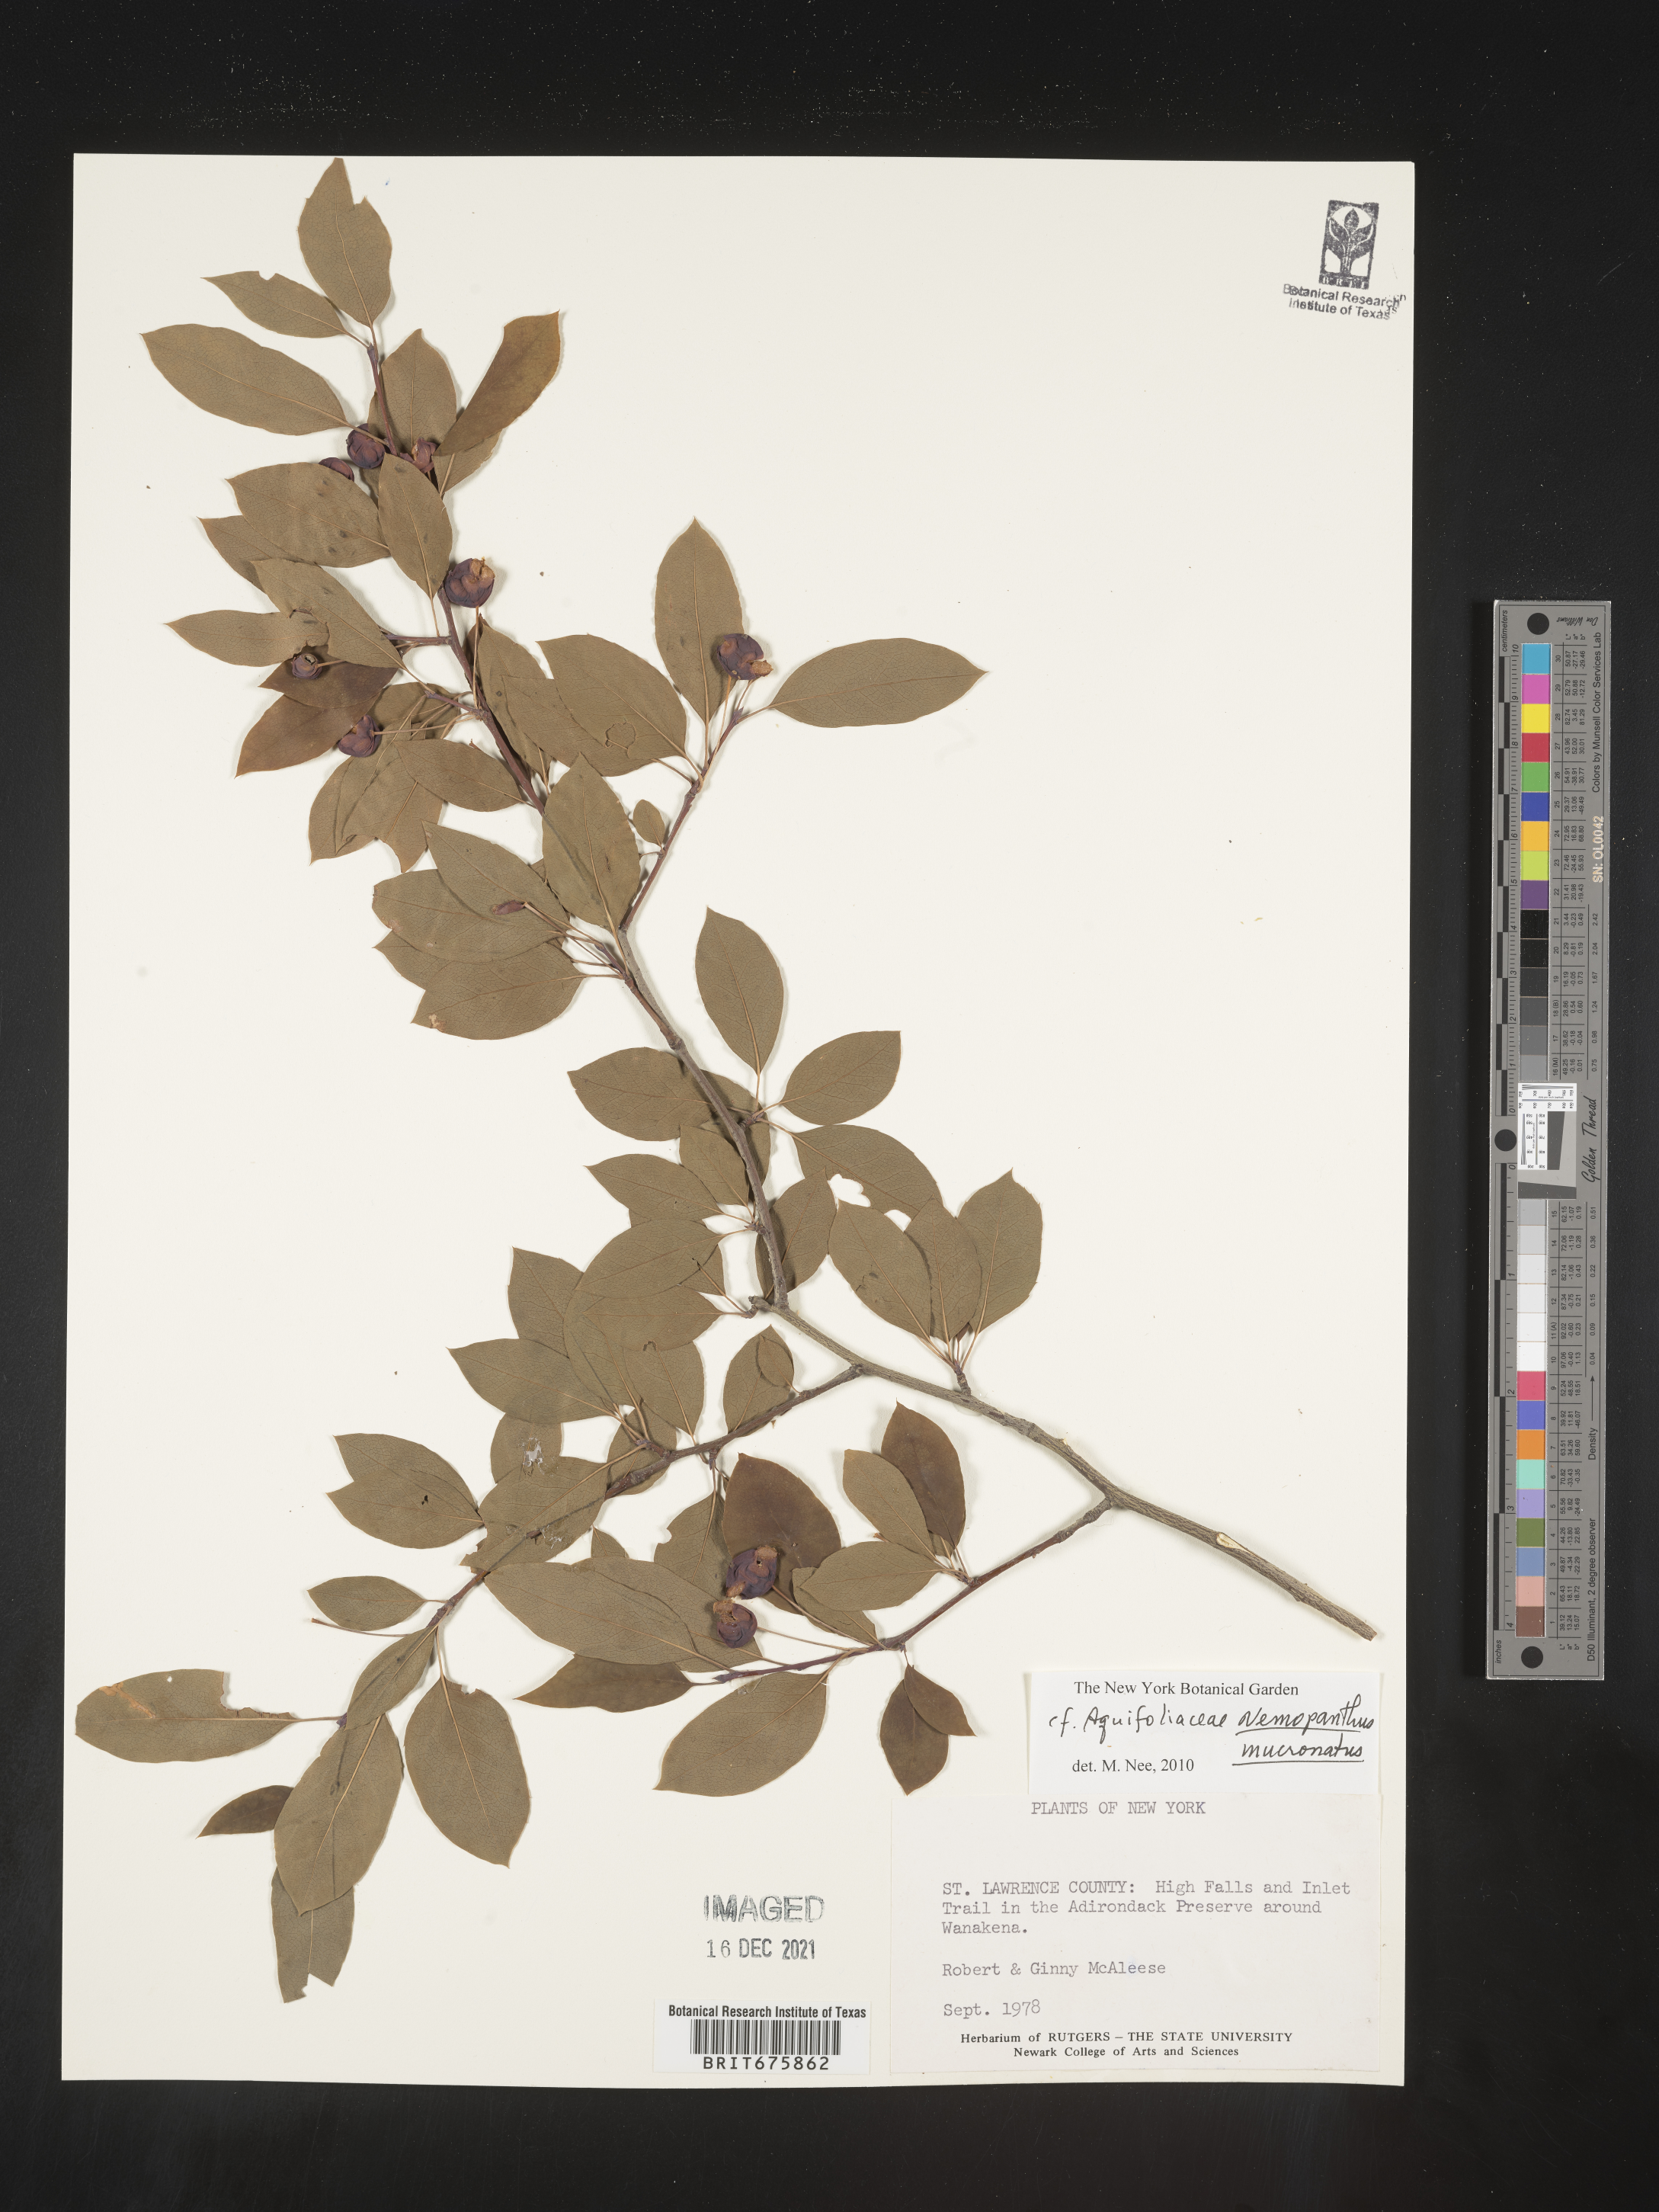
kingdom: Plantae
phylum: Tracheophyta
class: Magnoliopsida
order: Aquifoliales
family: Aquifoliaceae
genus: Ilex
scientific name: Ilex mucronata
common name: Catberry
